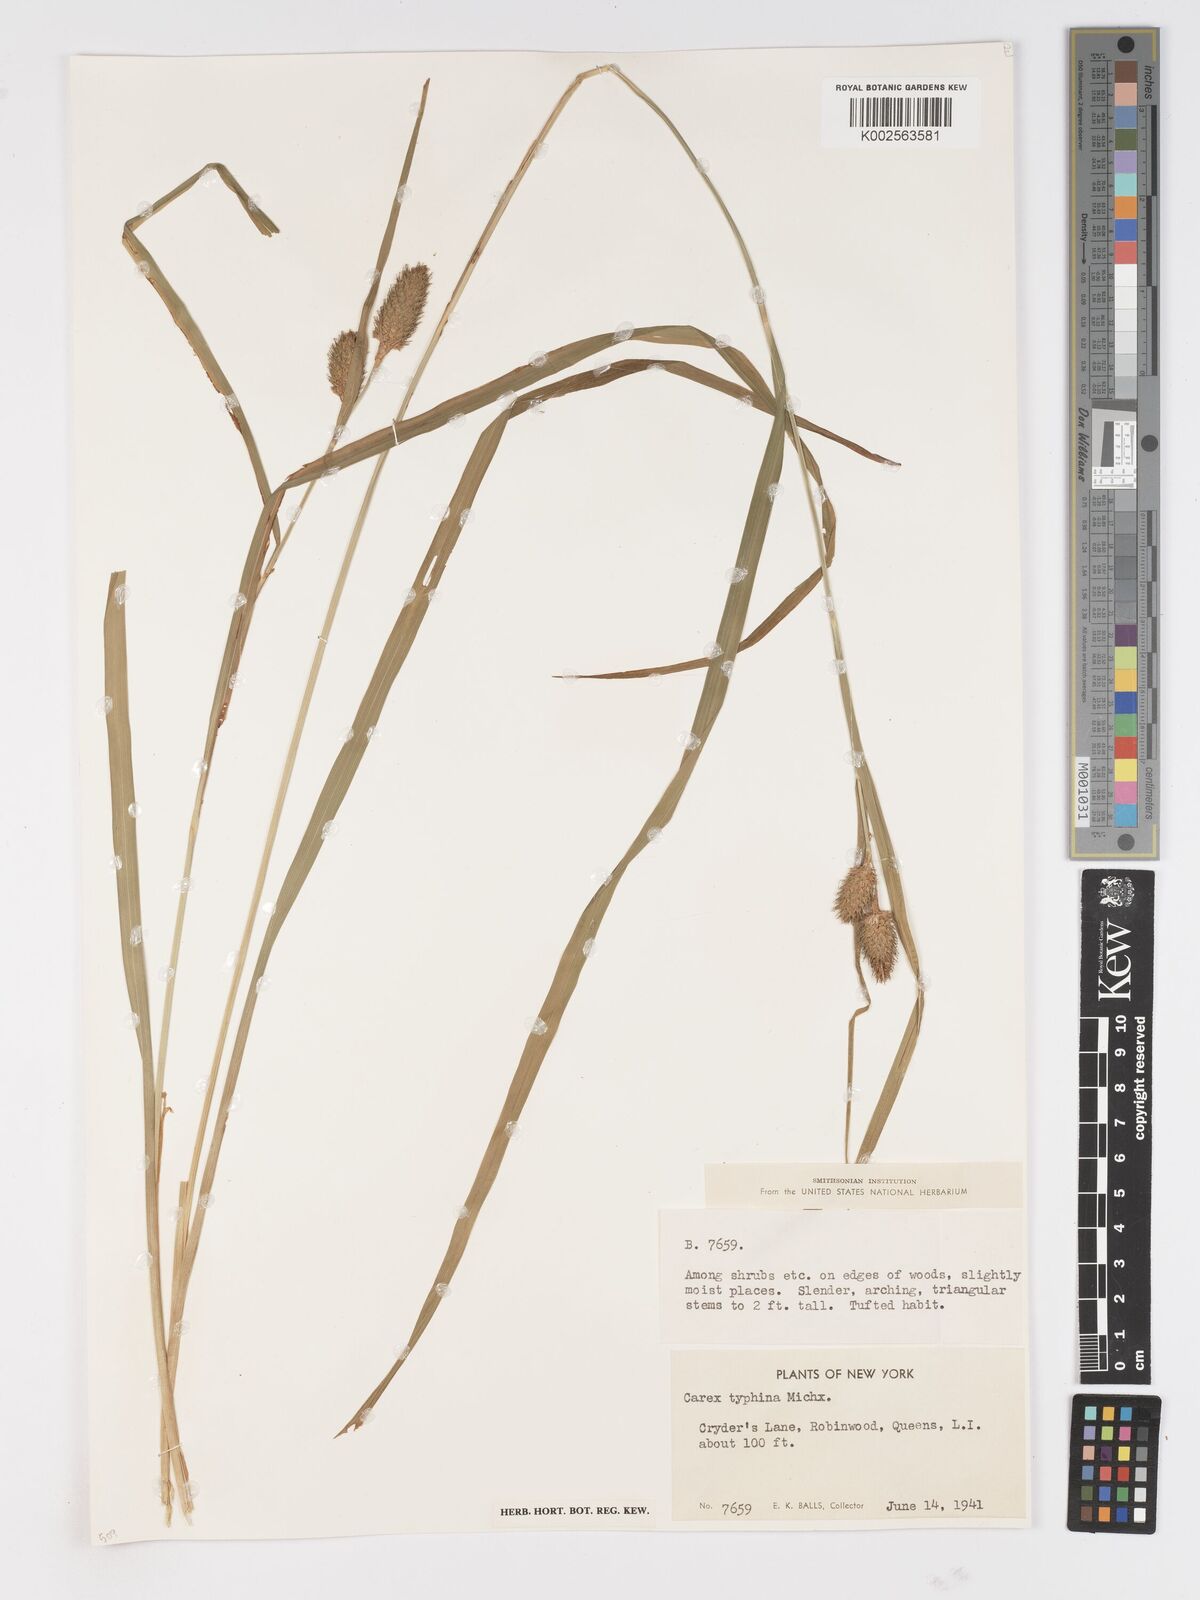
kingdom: Plantae
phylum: Tracheophyta
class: Liliopsida
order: Poales
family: Cyperaceae
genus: Carex
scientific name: Carex typhina
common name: Cattail sedge
